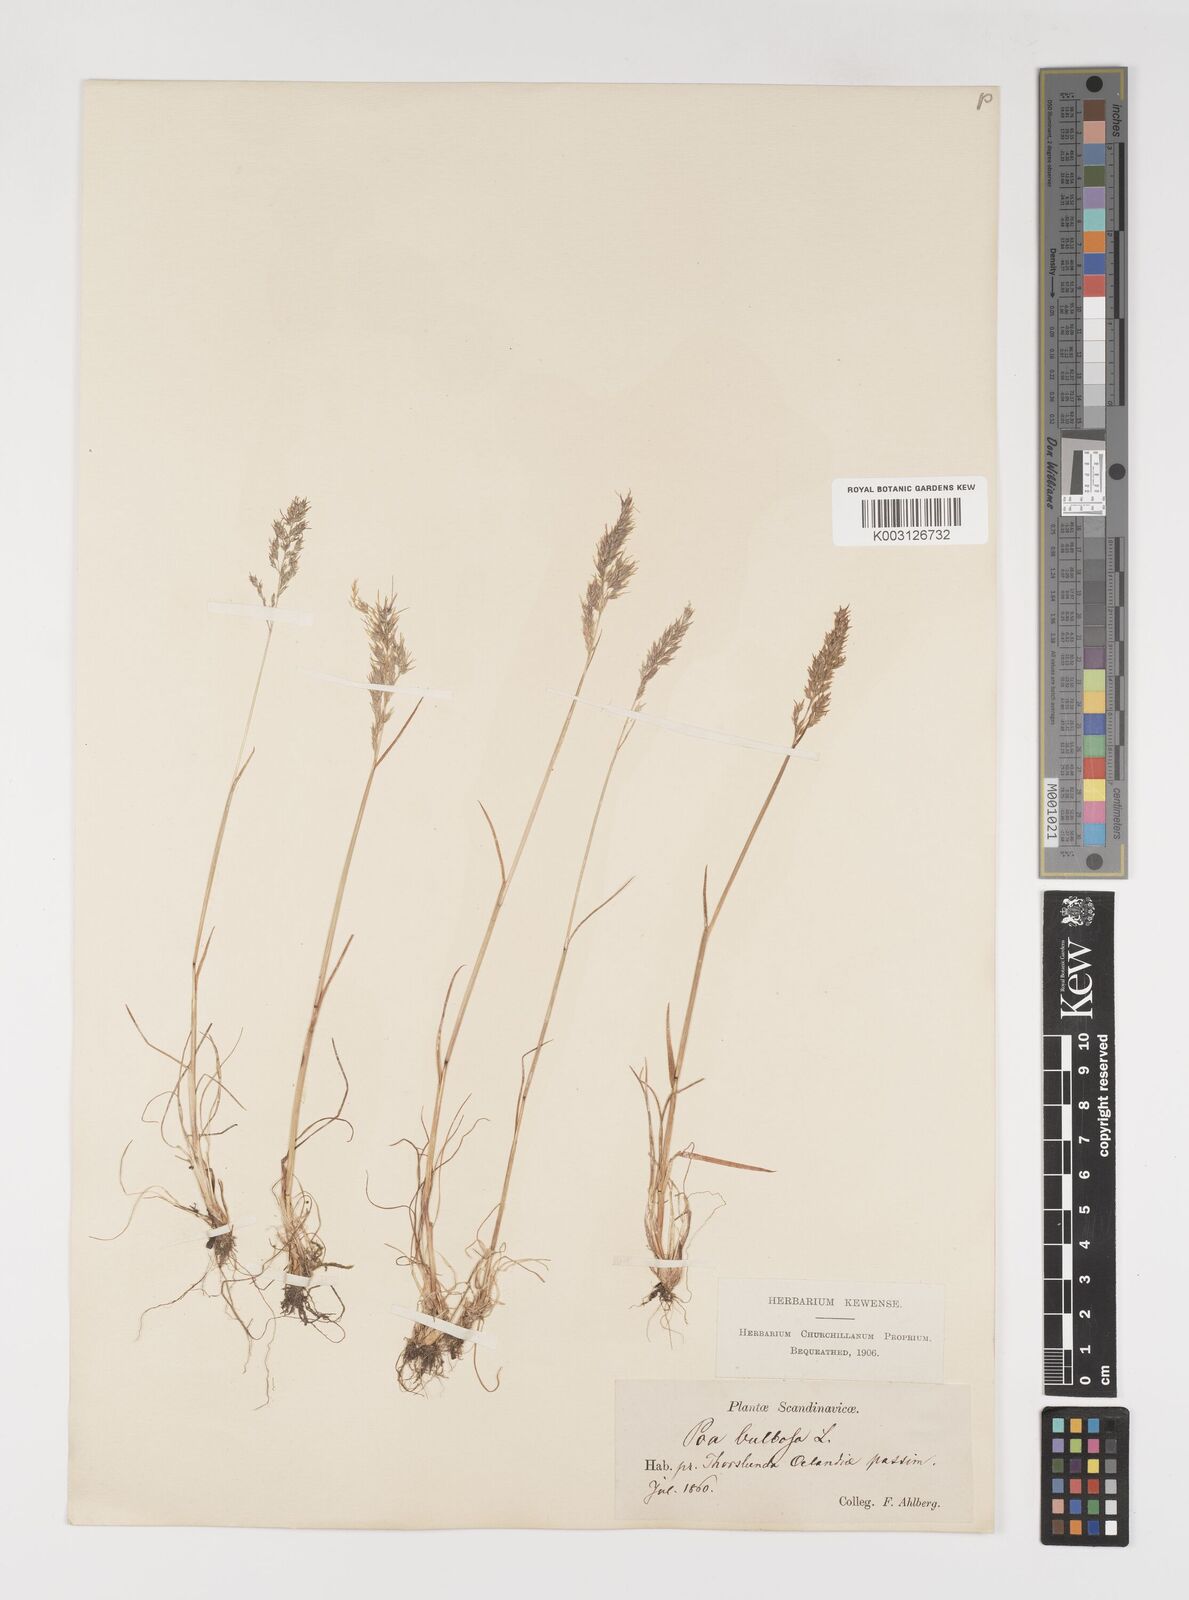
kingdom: Plantae
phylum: Tracheophyta
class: Liliopsida
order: Poales
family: Poaceae
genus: Poa
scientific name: Poa bulbosa
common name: Bulbous bluegrass
